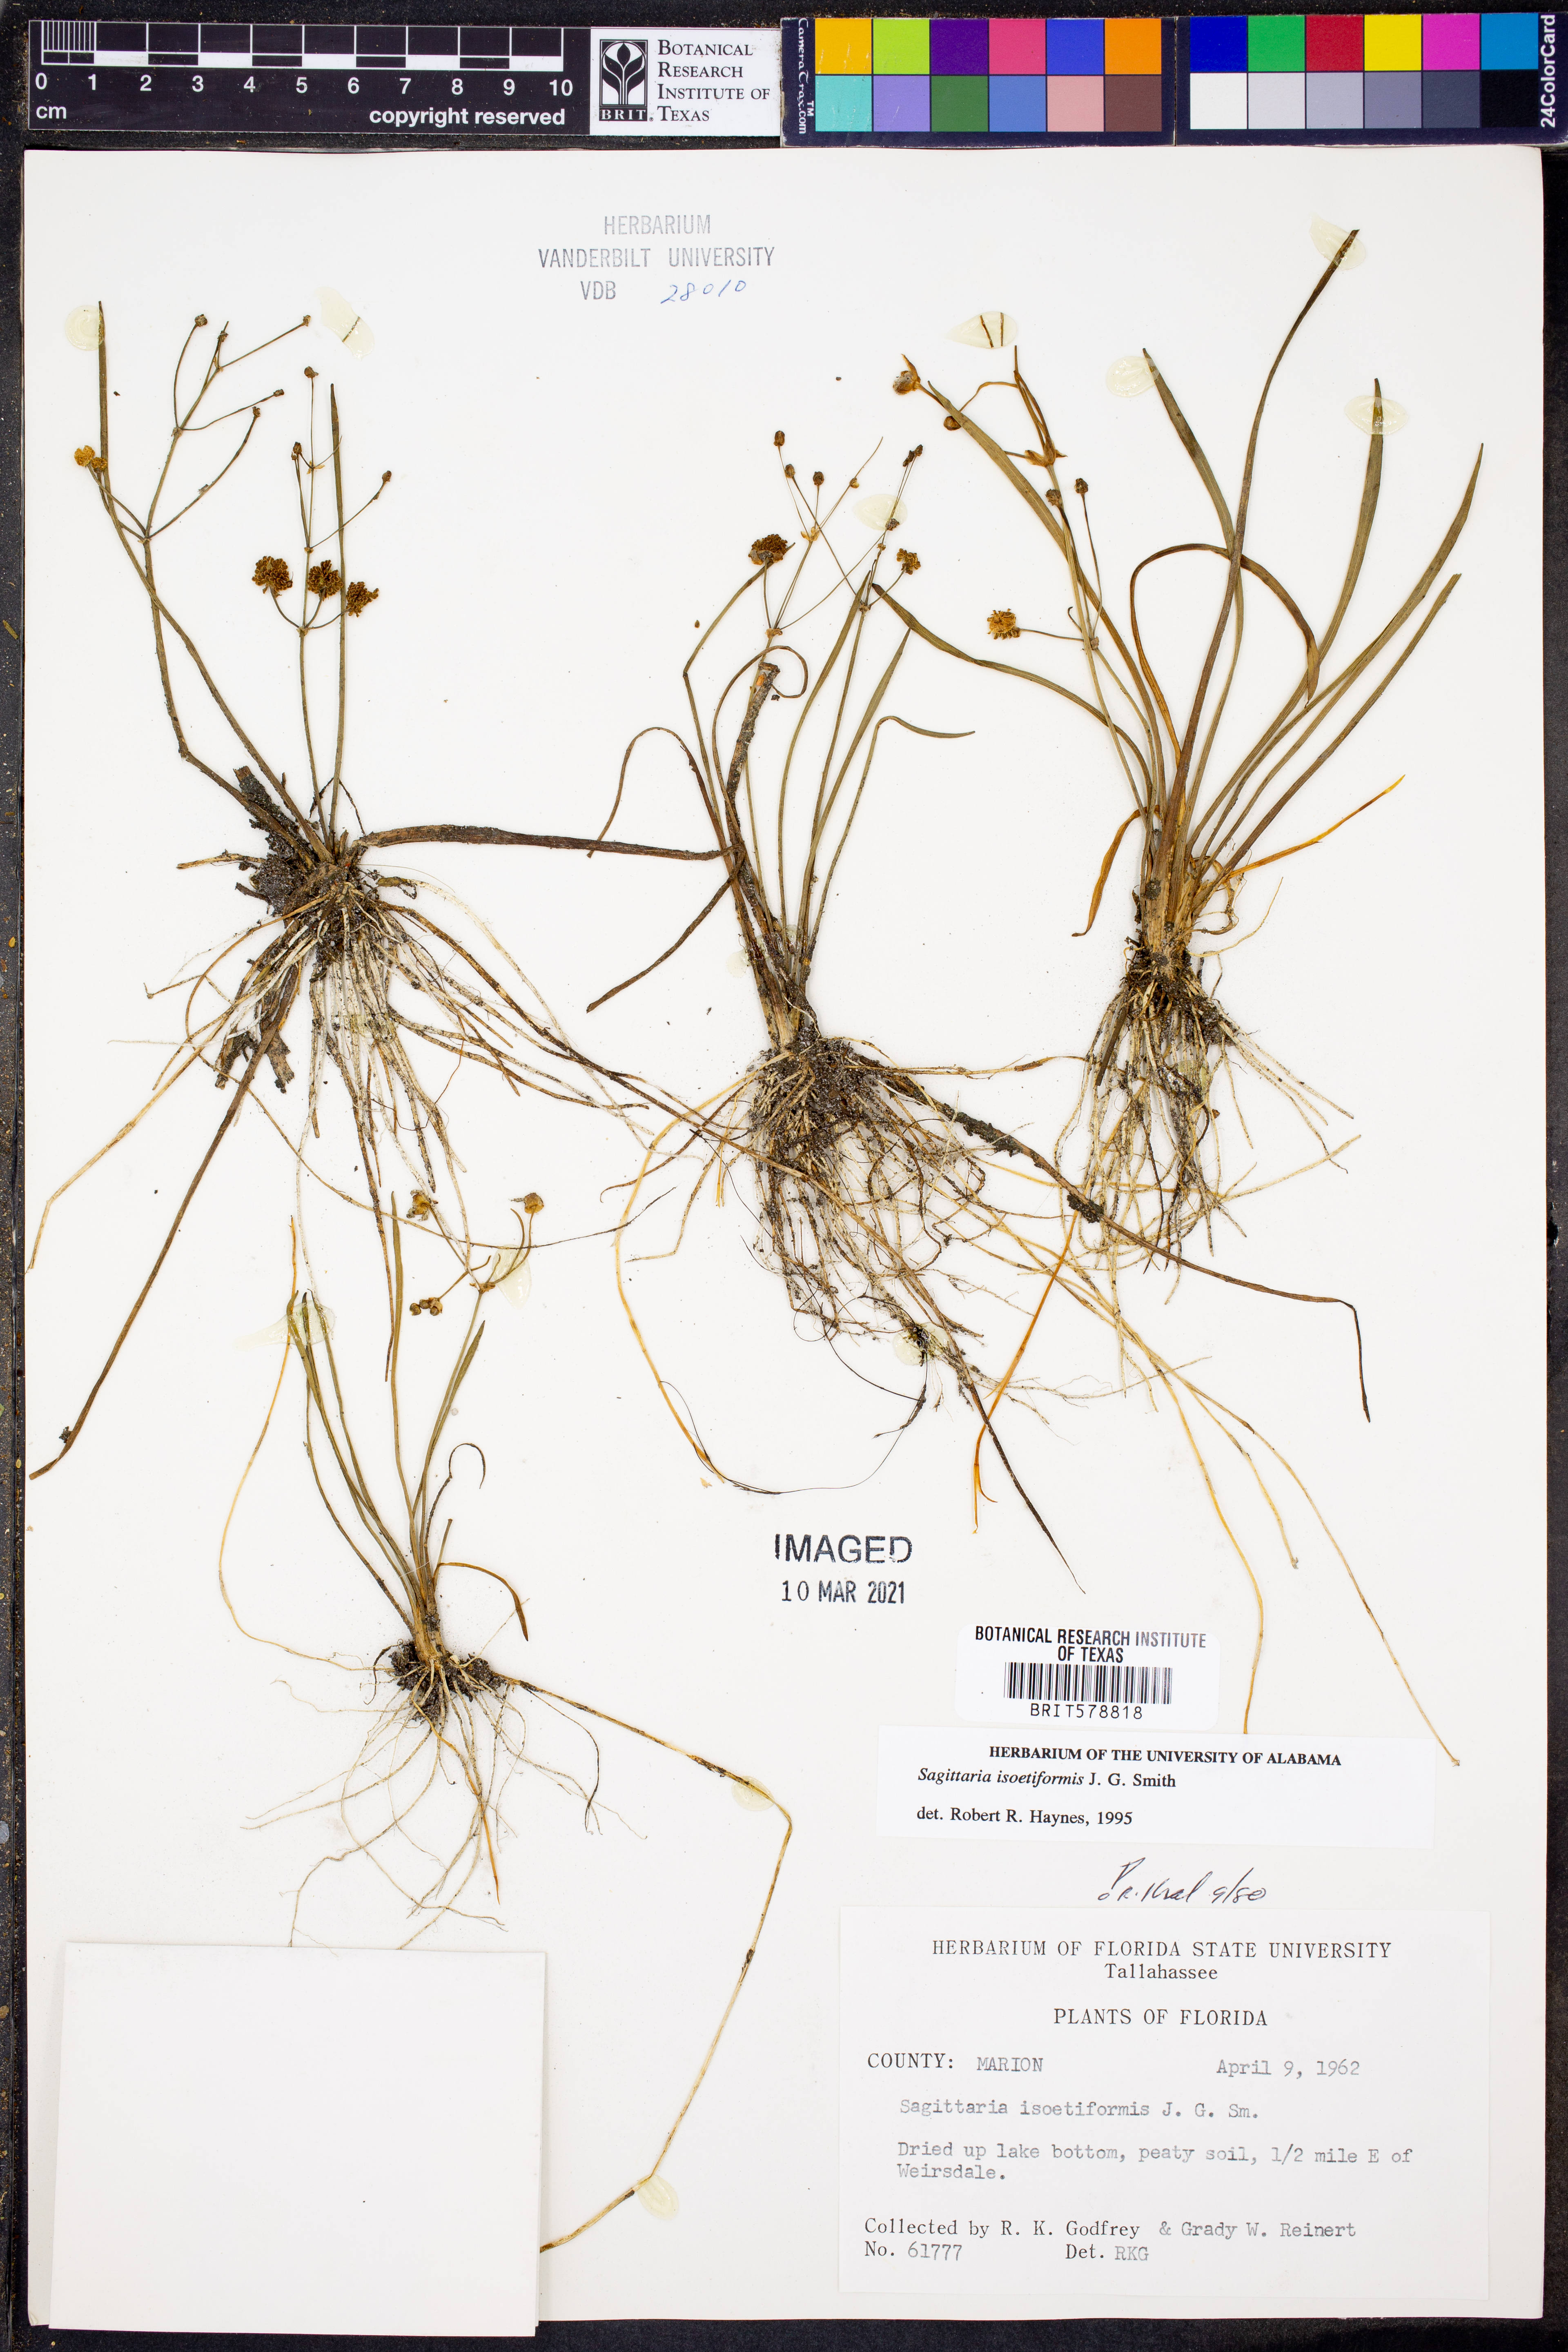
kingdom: Plantae
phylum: Tracheophyta
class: Liliopsida
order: Alismatales
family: Alismataceae
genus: Sagittaria
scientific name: Sagittaria isoetiformis
